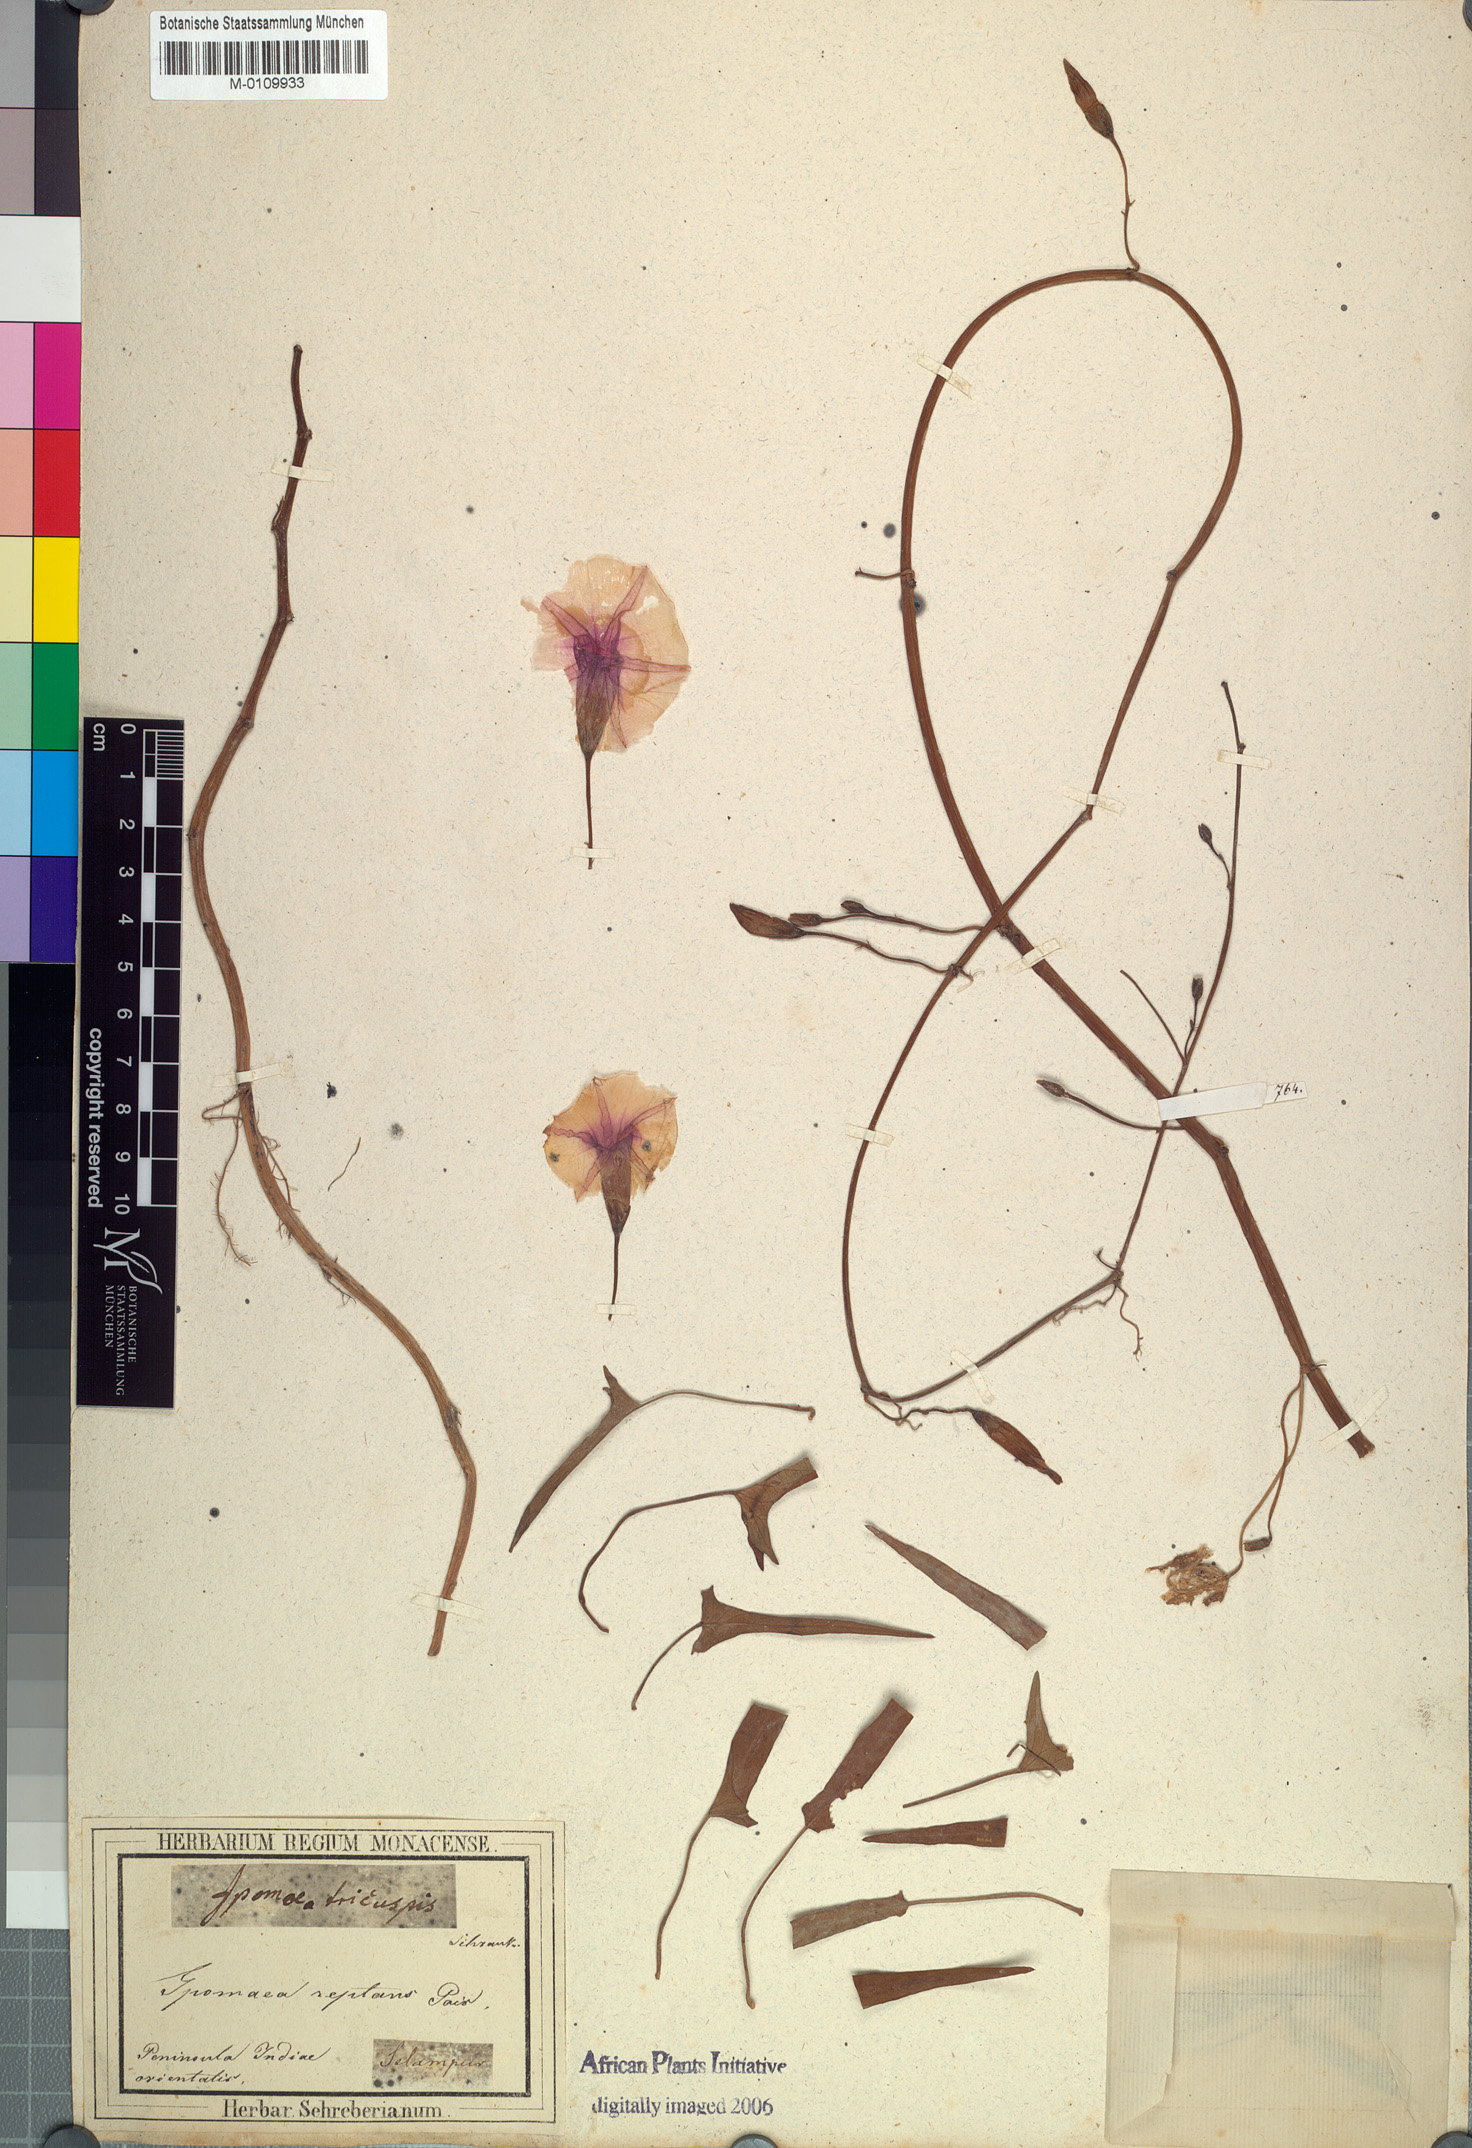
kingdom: Plantae
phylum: Tracheophyta
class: Magnoliopsida
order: Solanales
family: Convolvulaceae
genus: Ipomoea
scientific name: Ipomoea aquatica
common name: Swamp morning-glory
